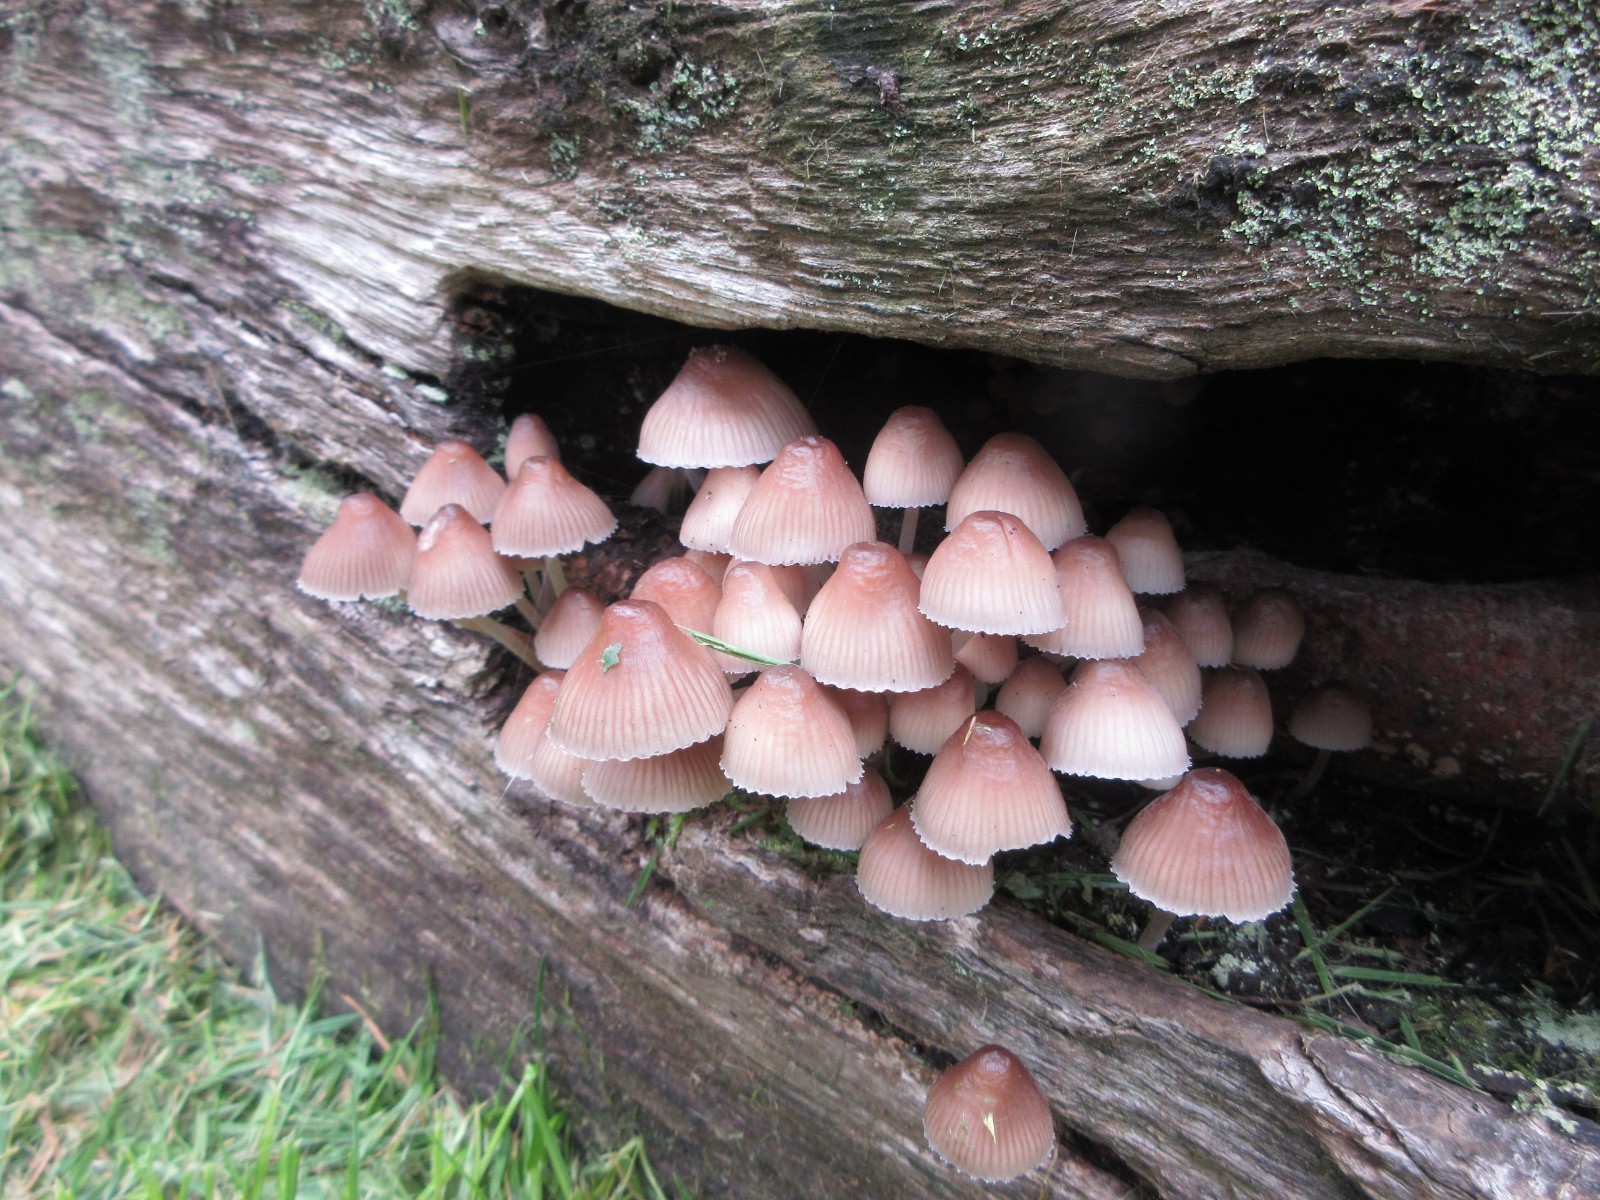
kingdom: Fungi
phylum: Basidiomycota
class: Agaricomycetes
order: Agaricales
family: Mycenaceae
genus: Mycena
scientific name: Mycena haematopus
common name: blødende huesvamp
